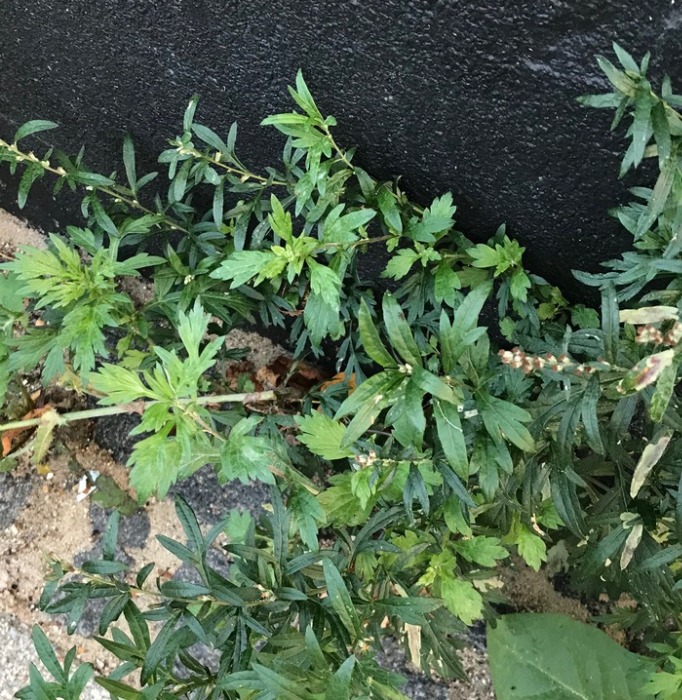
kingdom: Plantae
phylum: Tracheophyta
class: Magnoliopsida
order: Asterales
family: Asteraceae
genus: Artemisia
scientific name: Artemisia vulgaris
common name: Grå-bynke
